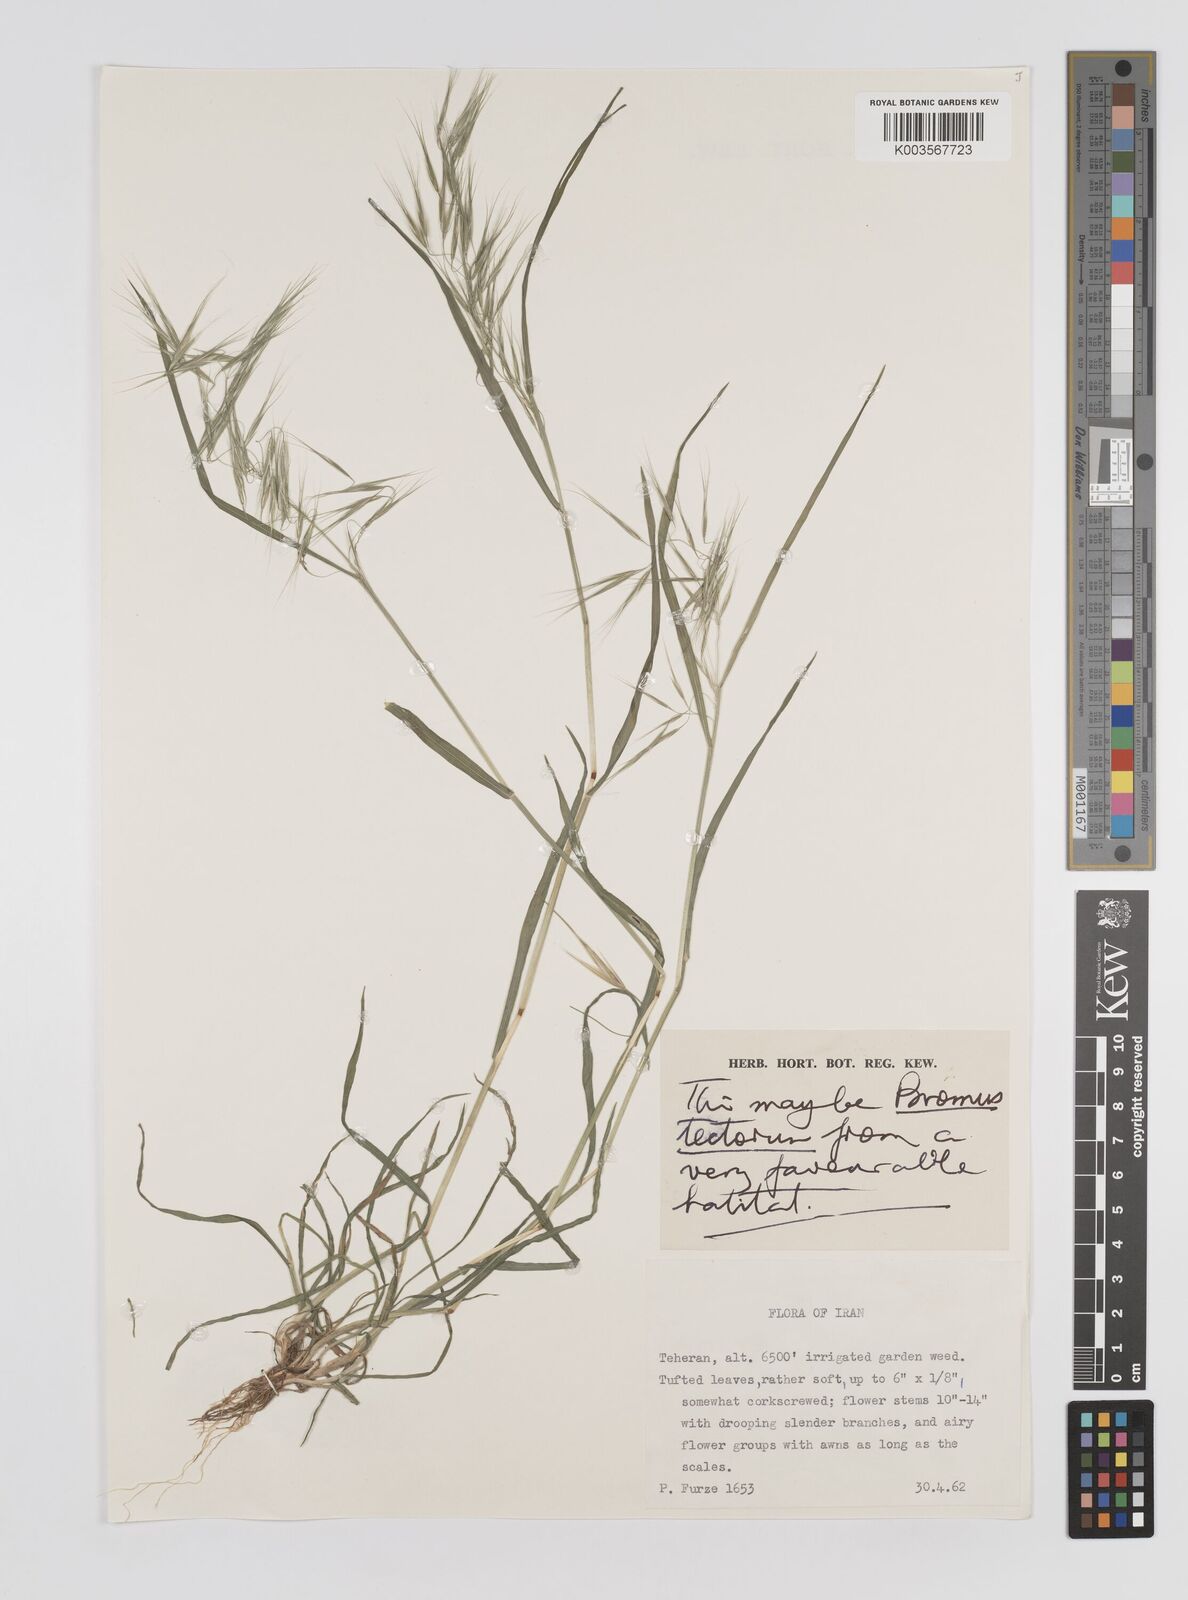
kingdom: Plantae
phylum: Tracheophyta
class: Liliopsida
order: Poales
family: Poaceae
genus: Bromus
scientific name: Bromus
